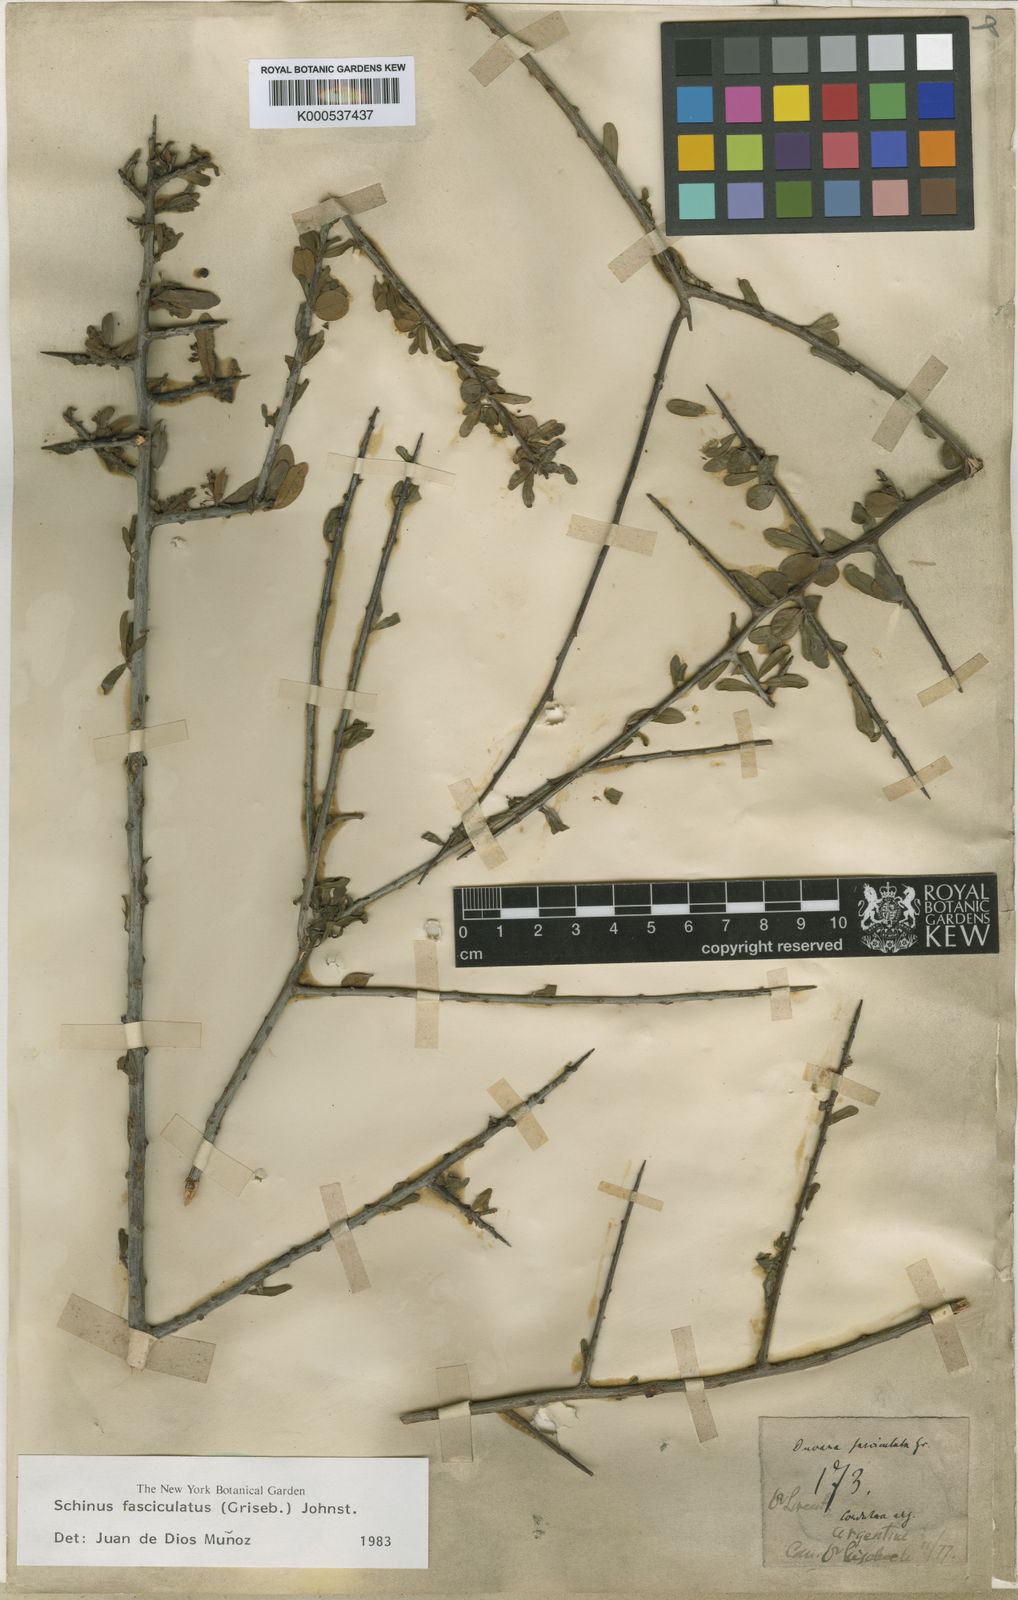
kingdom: Plantae
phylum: Tracheophyta
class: Magnoliopsida
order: Sapindales
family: Anacardiaceae
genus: Schinus
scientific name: Schinus polygama
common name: Hardee peppertree
